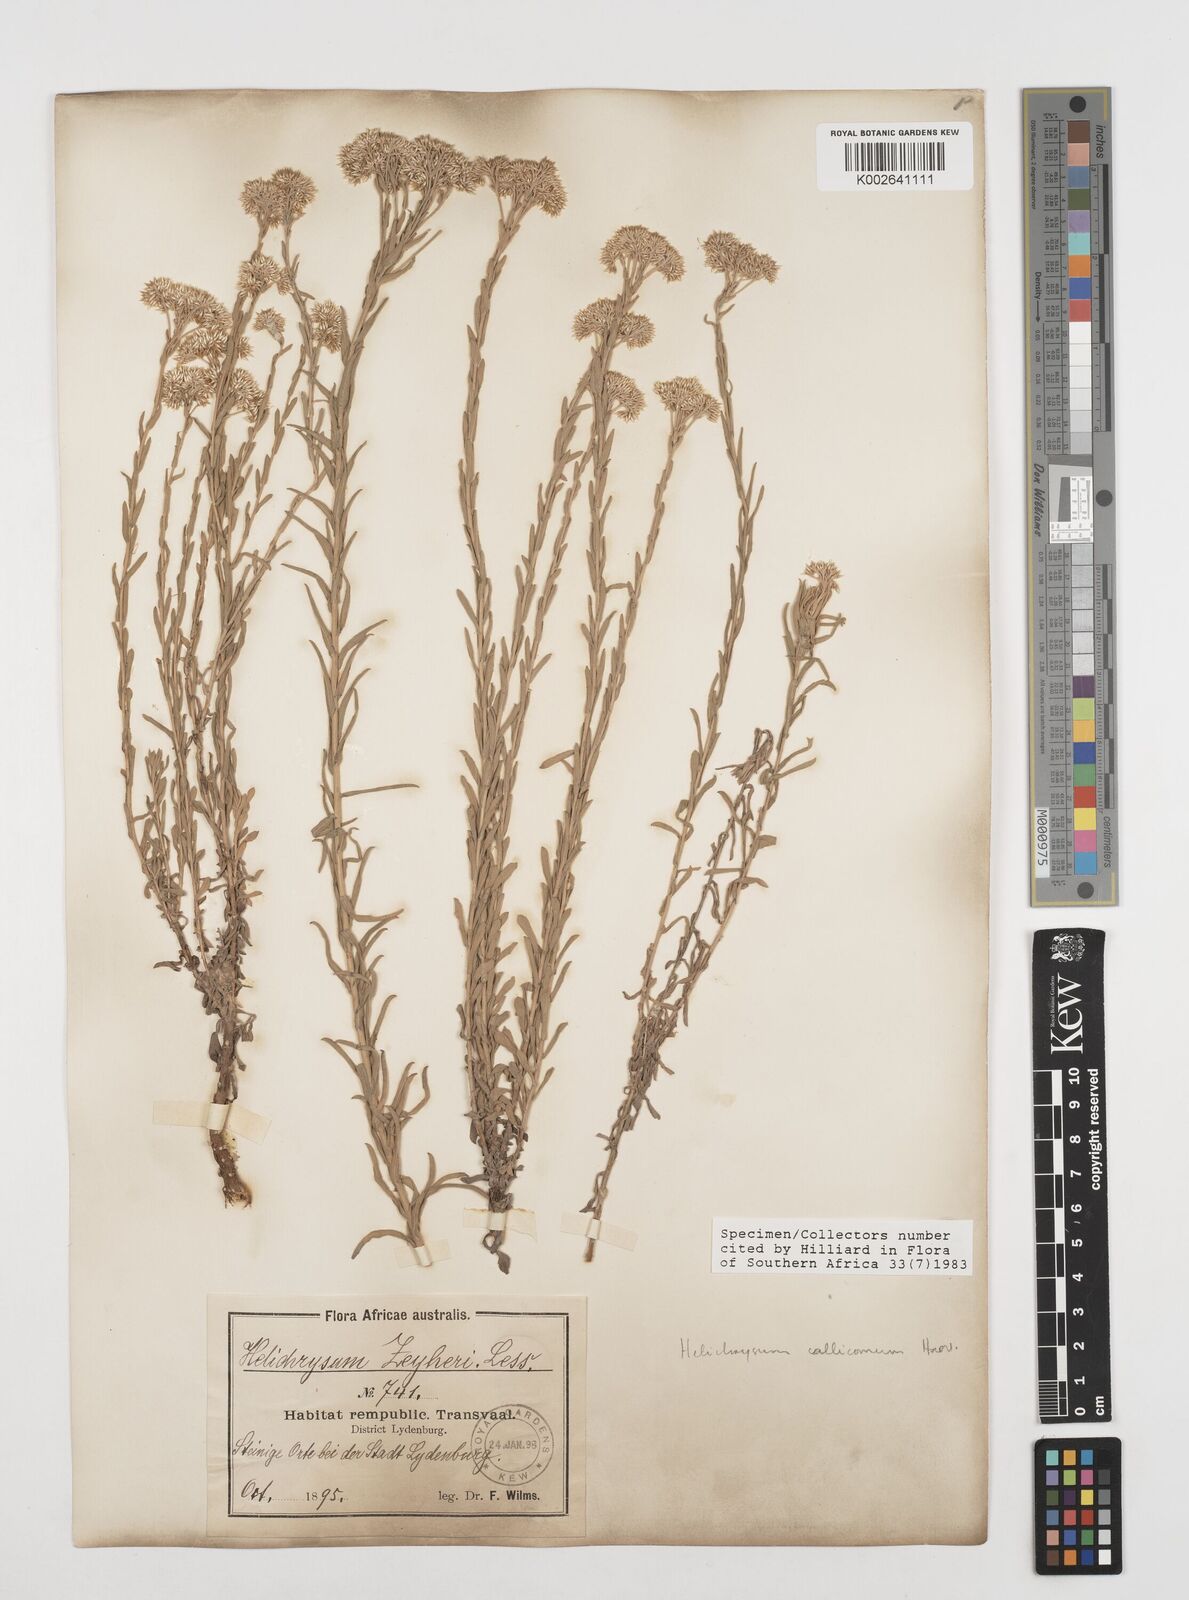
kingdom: Plantae
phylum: Tracheophyta
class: Magnoliopsida
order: Asterales
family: Asteraceae
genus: Helichrysum
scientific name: Helichrysum callicomum
